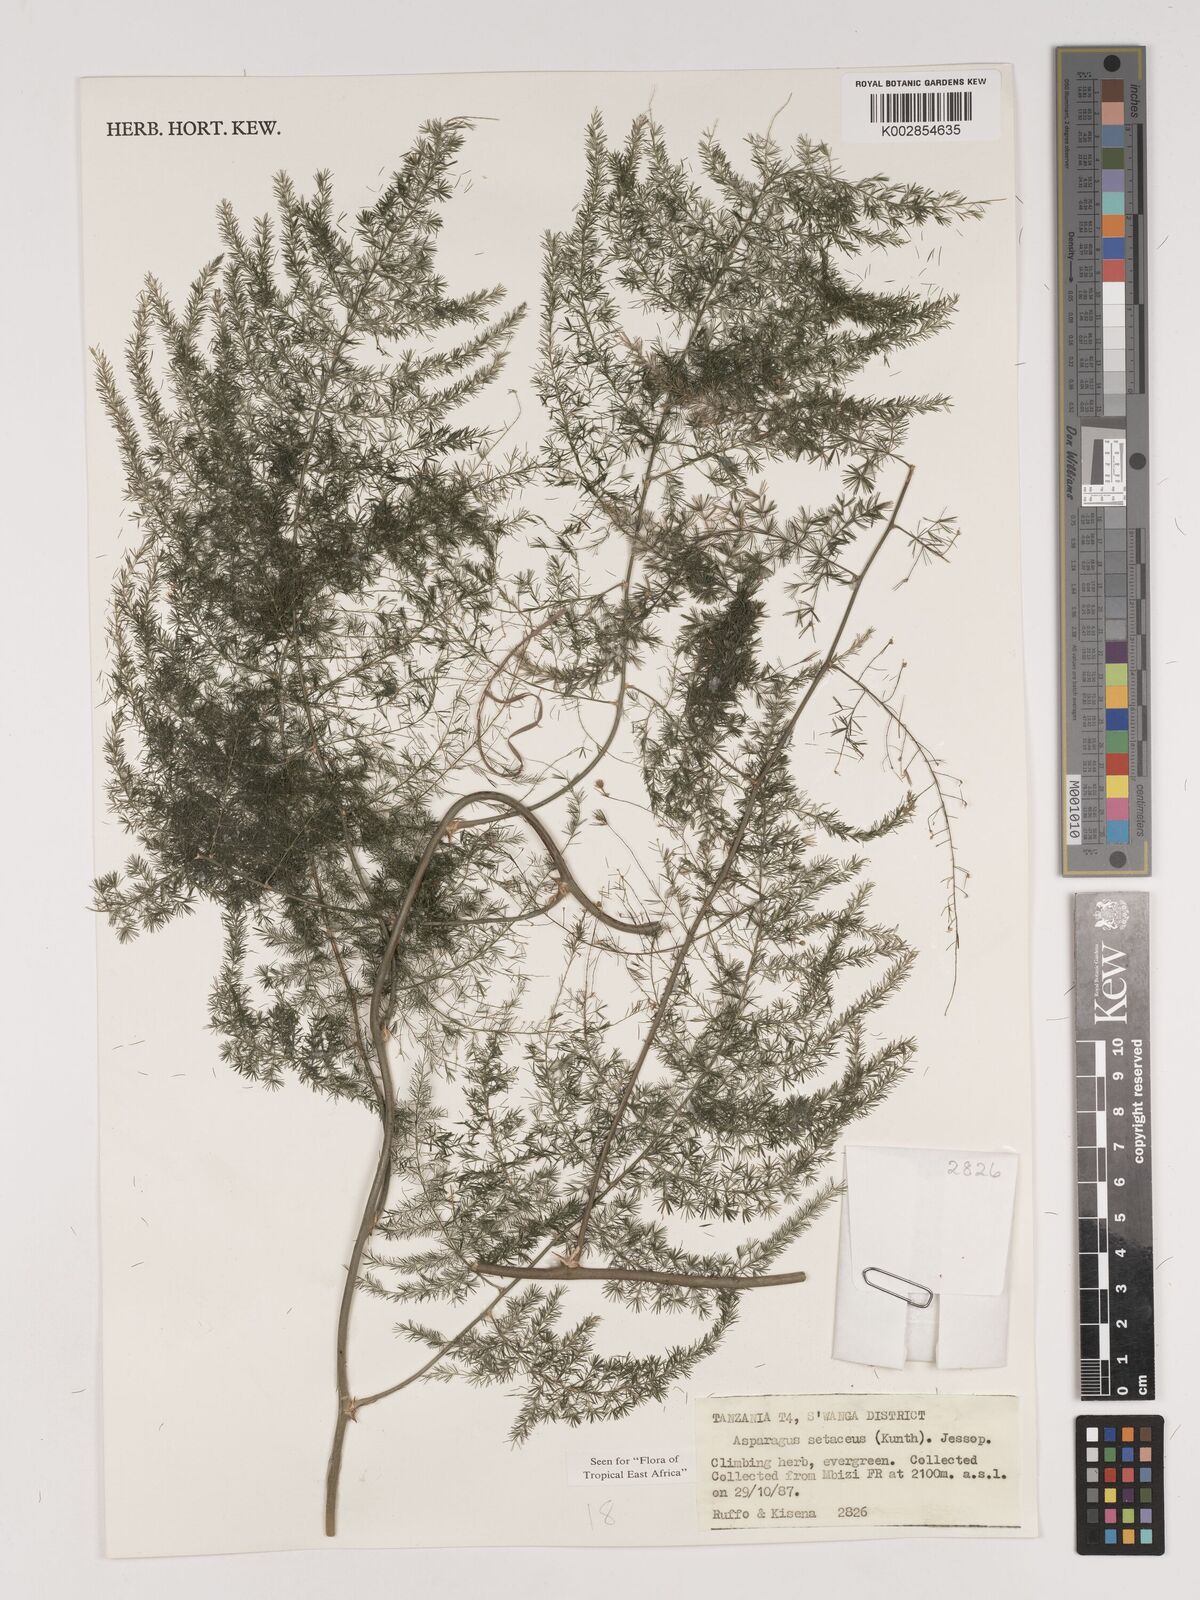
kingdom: Plantae
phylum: Tracheophyta
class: Liliopsida
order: Asparagales
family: Asparagaceae
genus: Asparagus
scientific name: Asparagus setaceus
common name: Common asparagus fern
